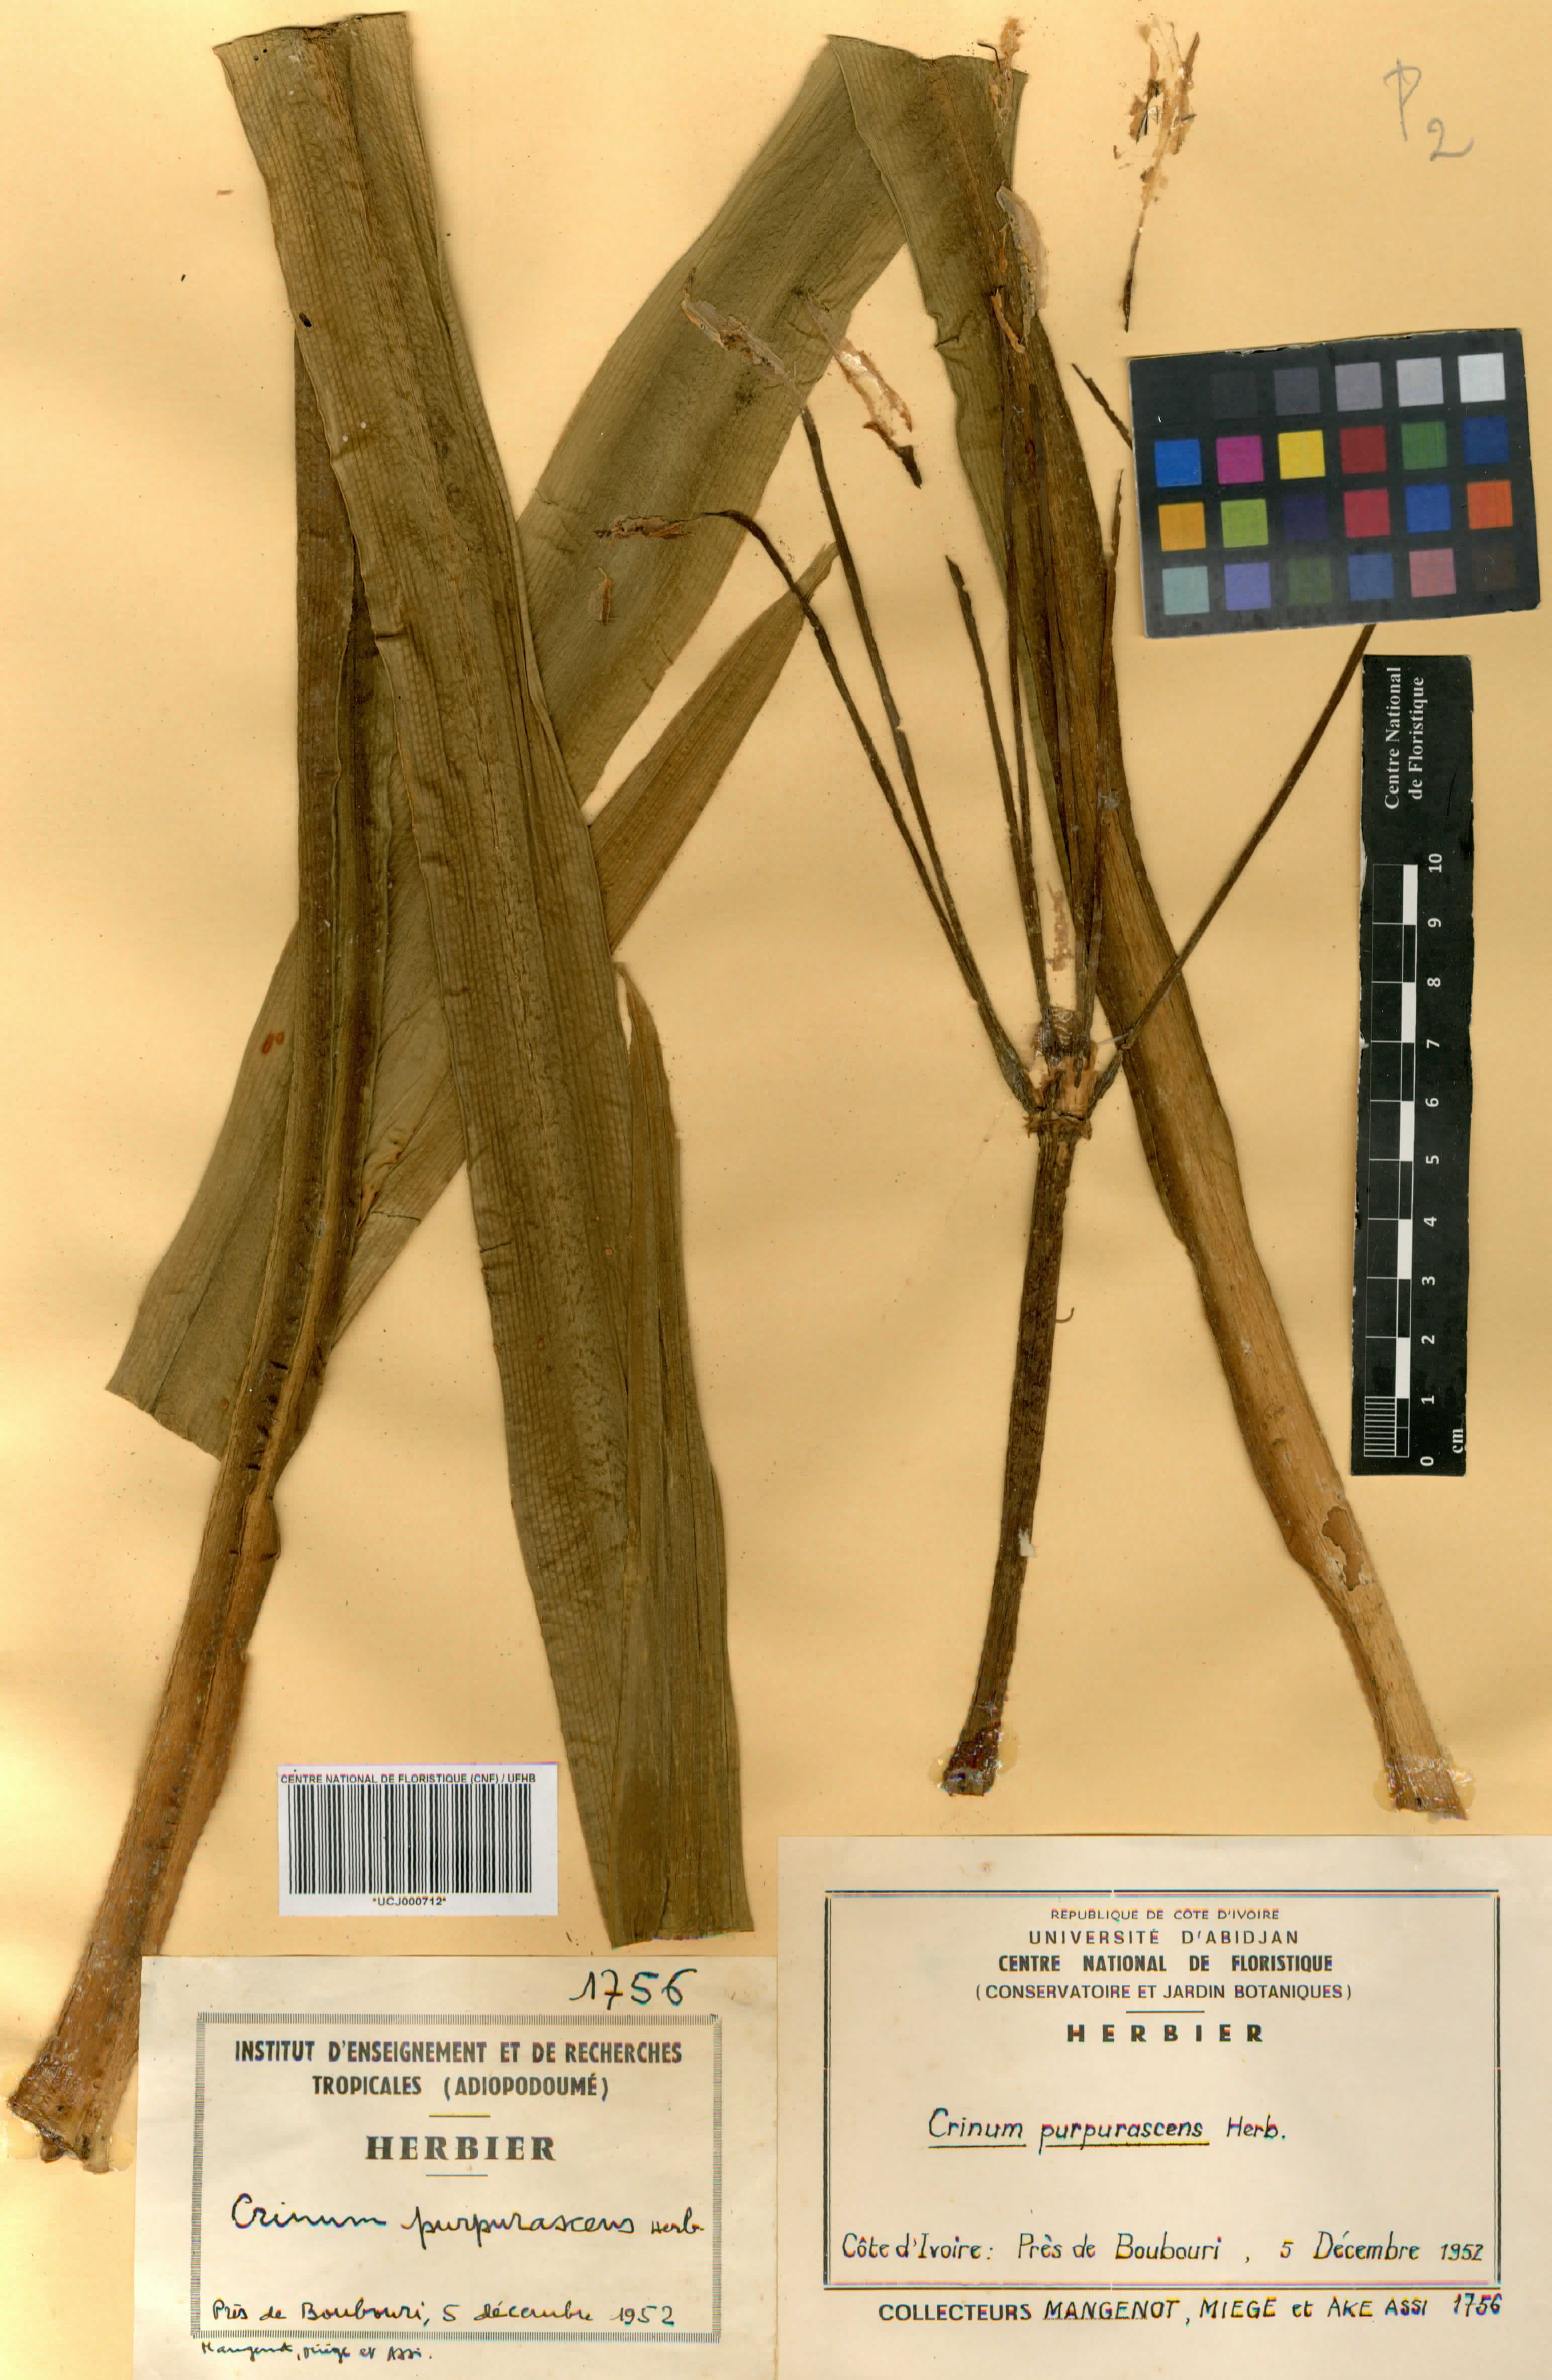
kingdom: Plantae
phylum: Tracheophyta
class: Liliopsida
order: Asparagales
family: Amaryllidaceae
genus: Crinum
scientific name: Crinum purpurascens
